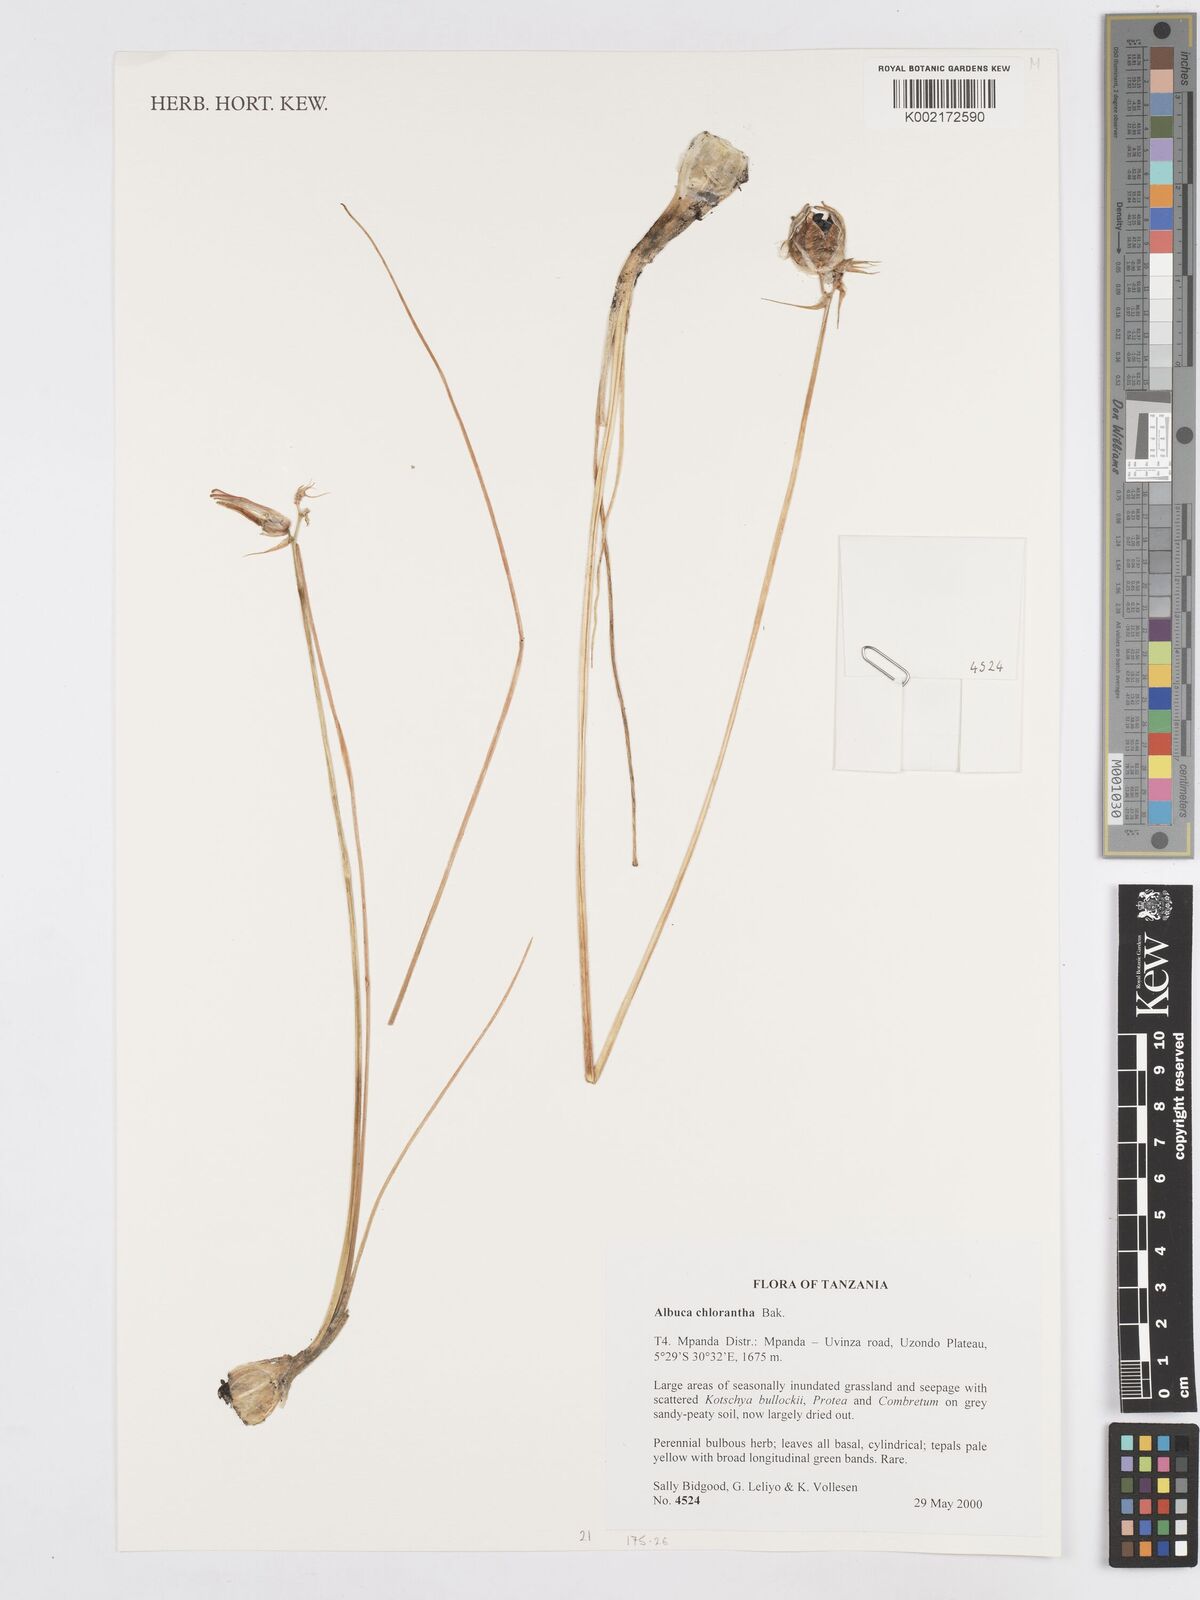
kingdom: Plantae
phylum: Tracheophyta
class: Liliopsida
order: Asparagales
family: Asparagaceae
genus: Albuca
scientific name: Albuca chlorantha
